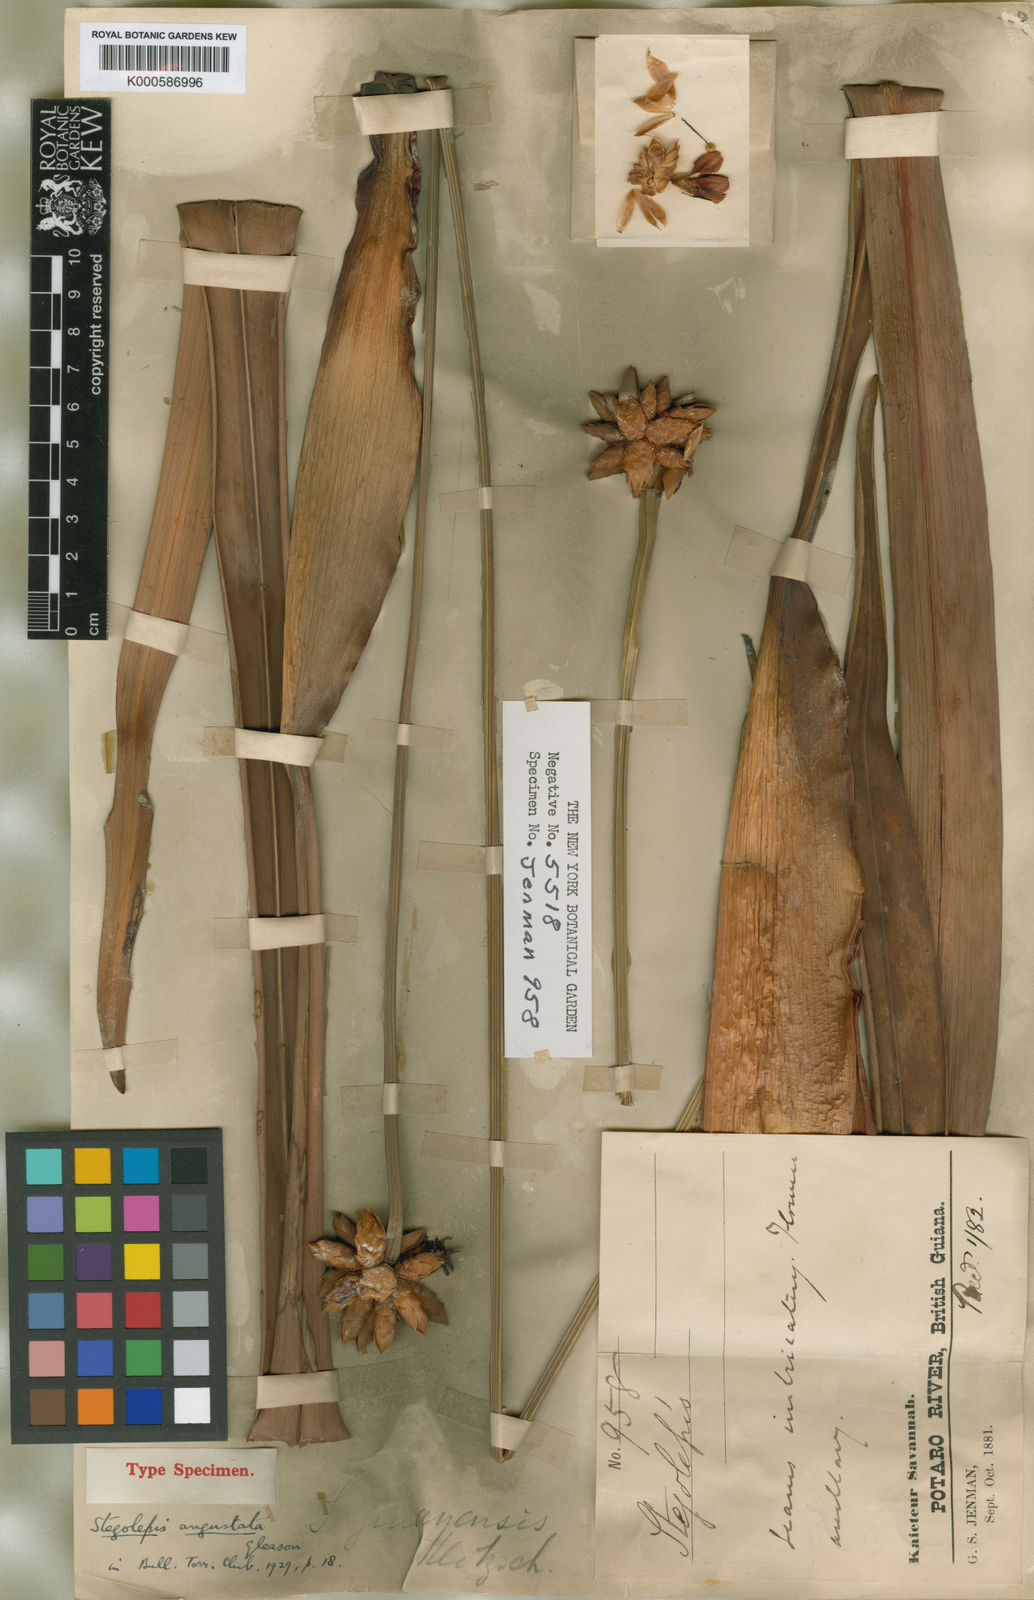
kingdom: Plantae
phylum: Tracheophyta
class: Liliopsida
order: Poales
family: Rapateaceae
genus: Stegolepis
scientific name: Stegolepis angustata
